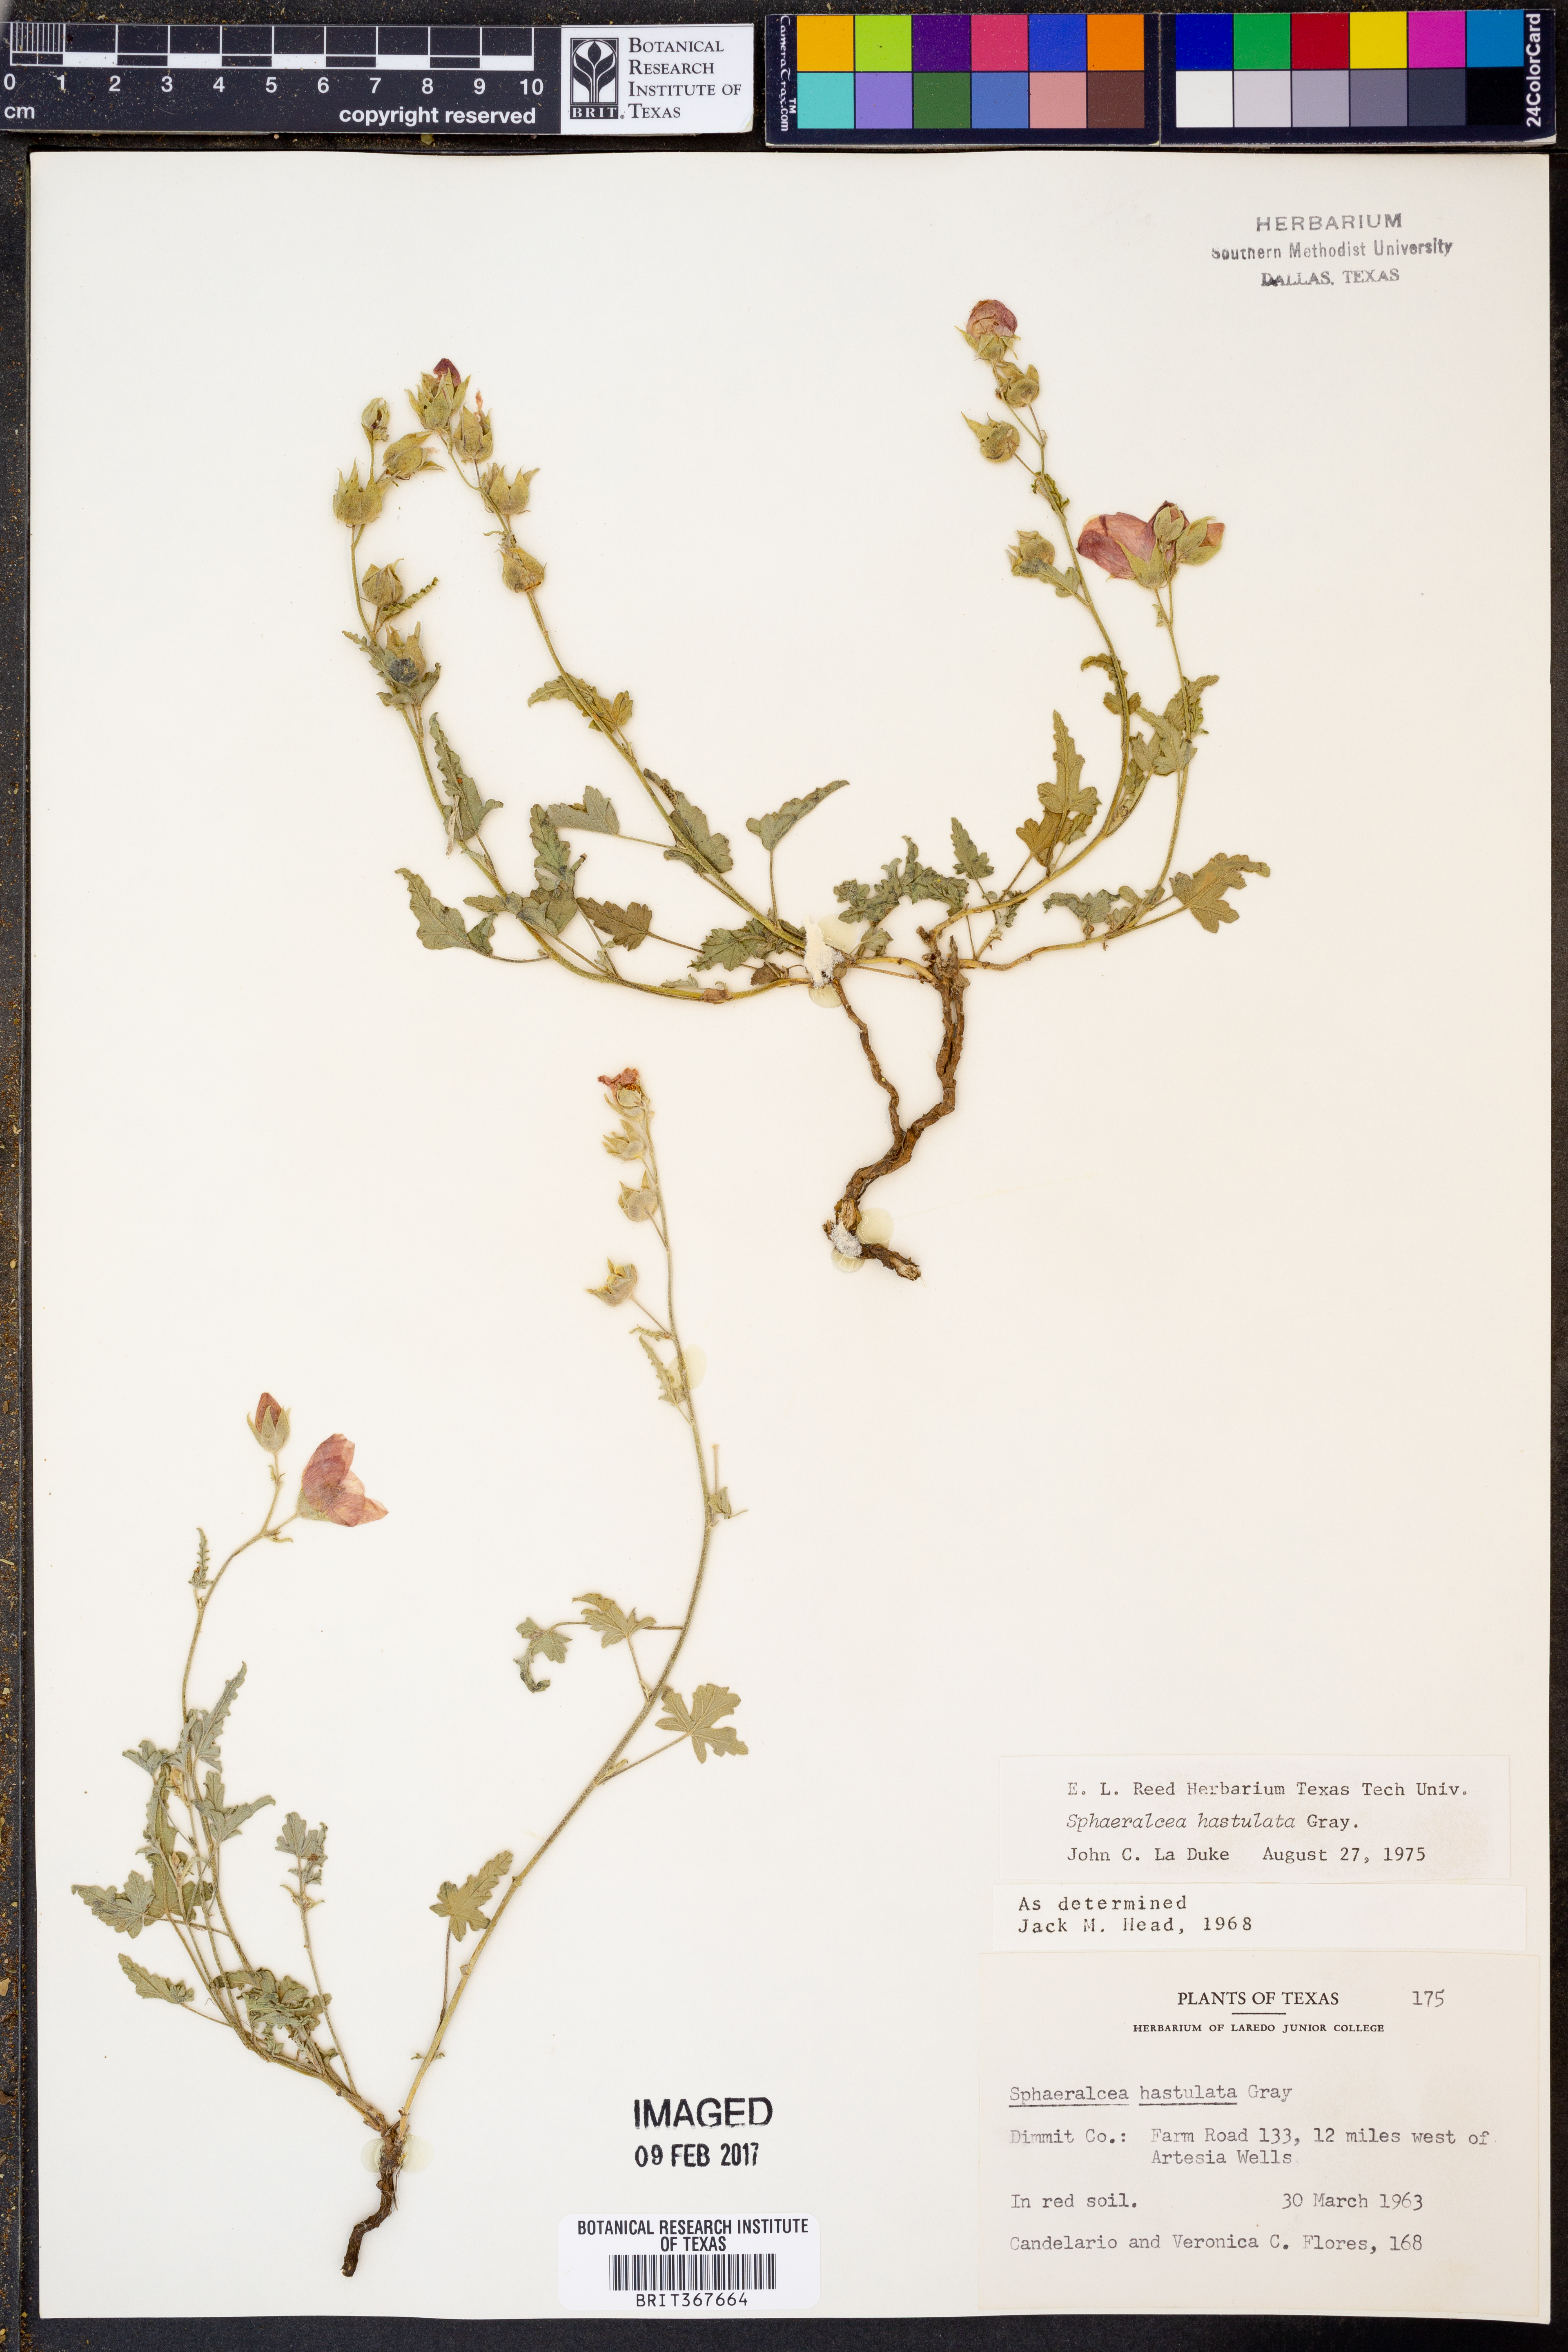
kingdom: Plantae
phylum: Tracheophyta
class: Magnoliopsida
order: Malvales
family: Malvaceae
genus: Sphaeralcea
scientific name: Sphaeralcea hastulata
